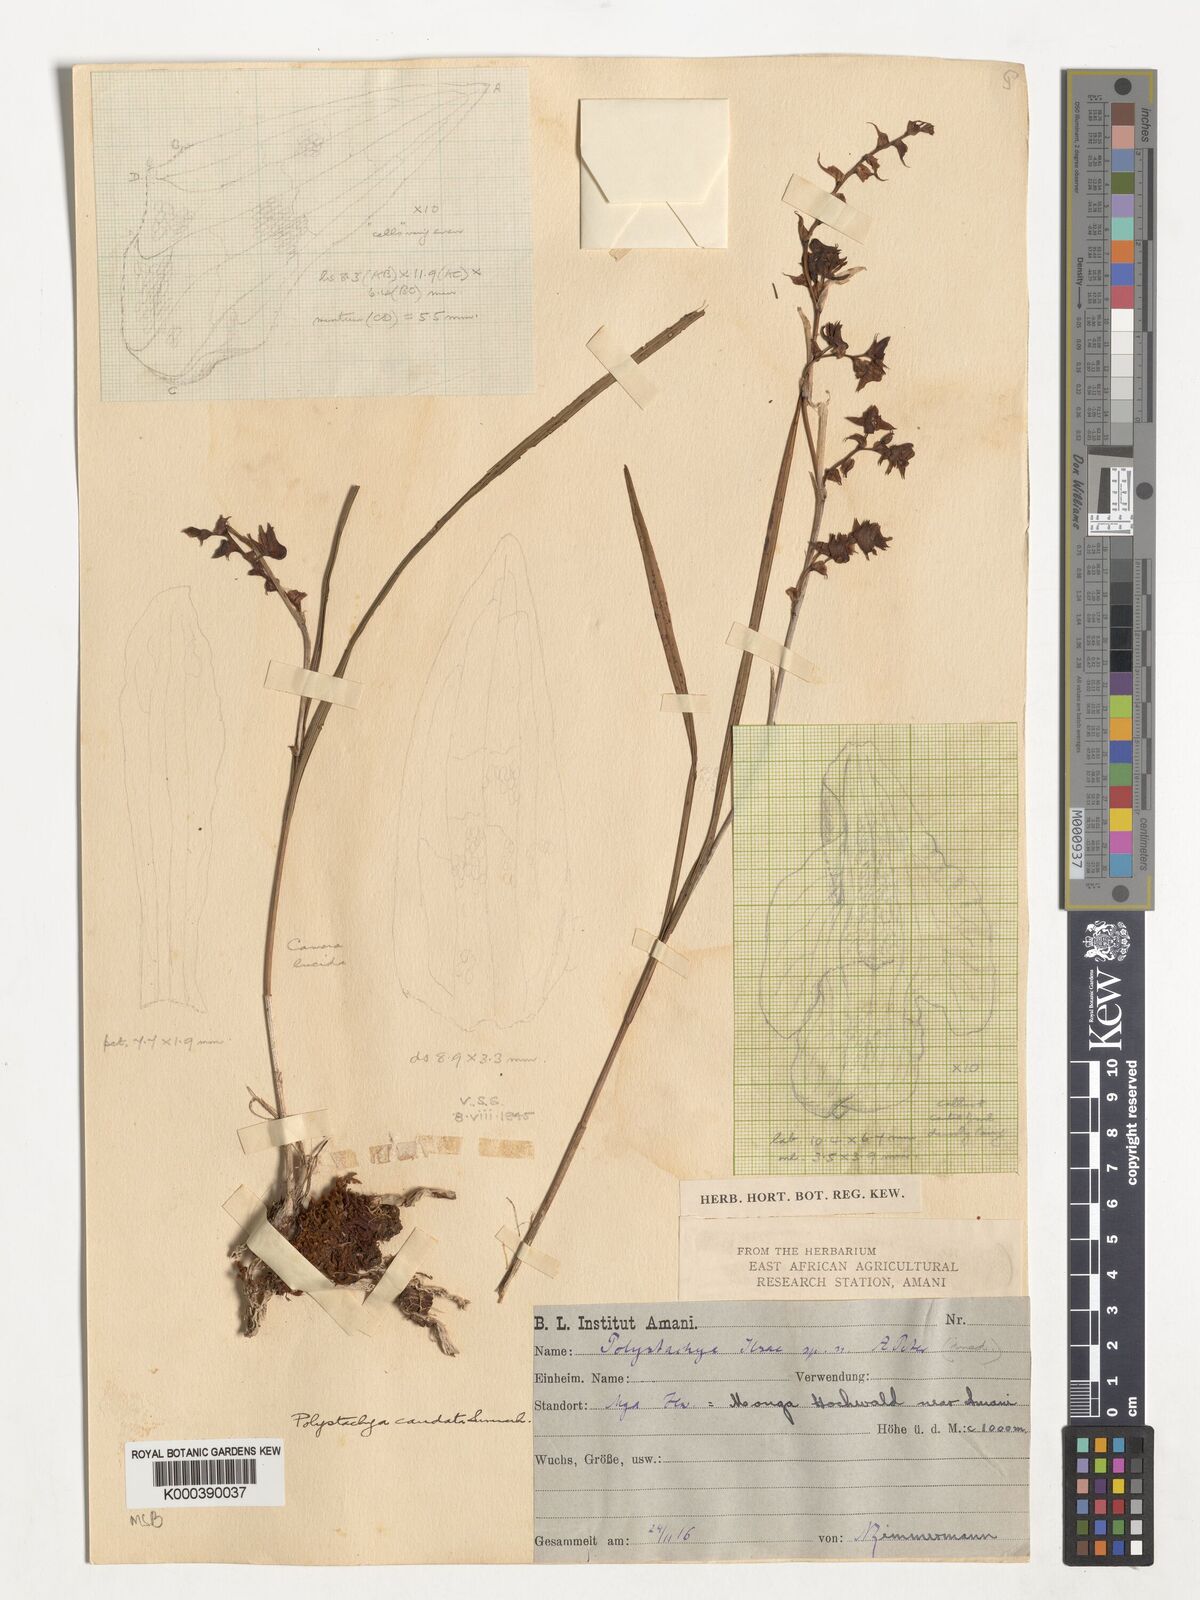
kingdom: Plantae
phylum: Tracheophyta
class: Liliopsida
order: Asparagales
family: Orchidaceae
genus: Polystachya
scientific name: Polystachya caudata
